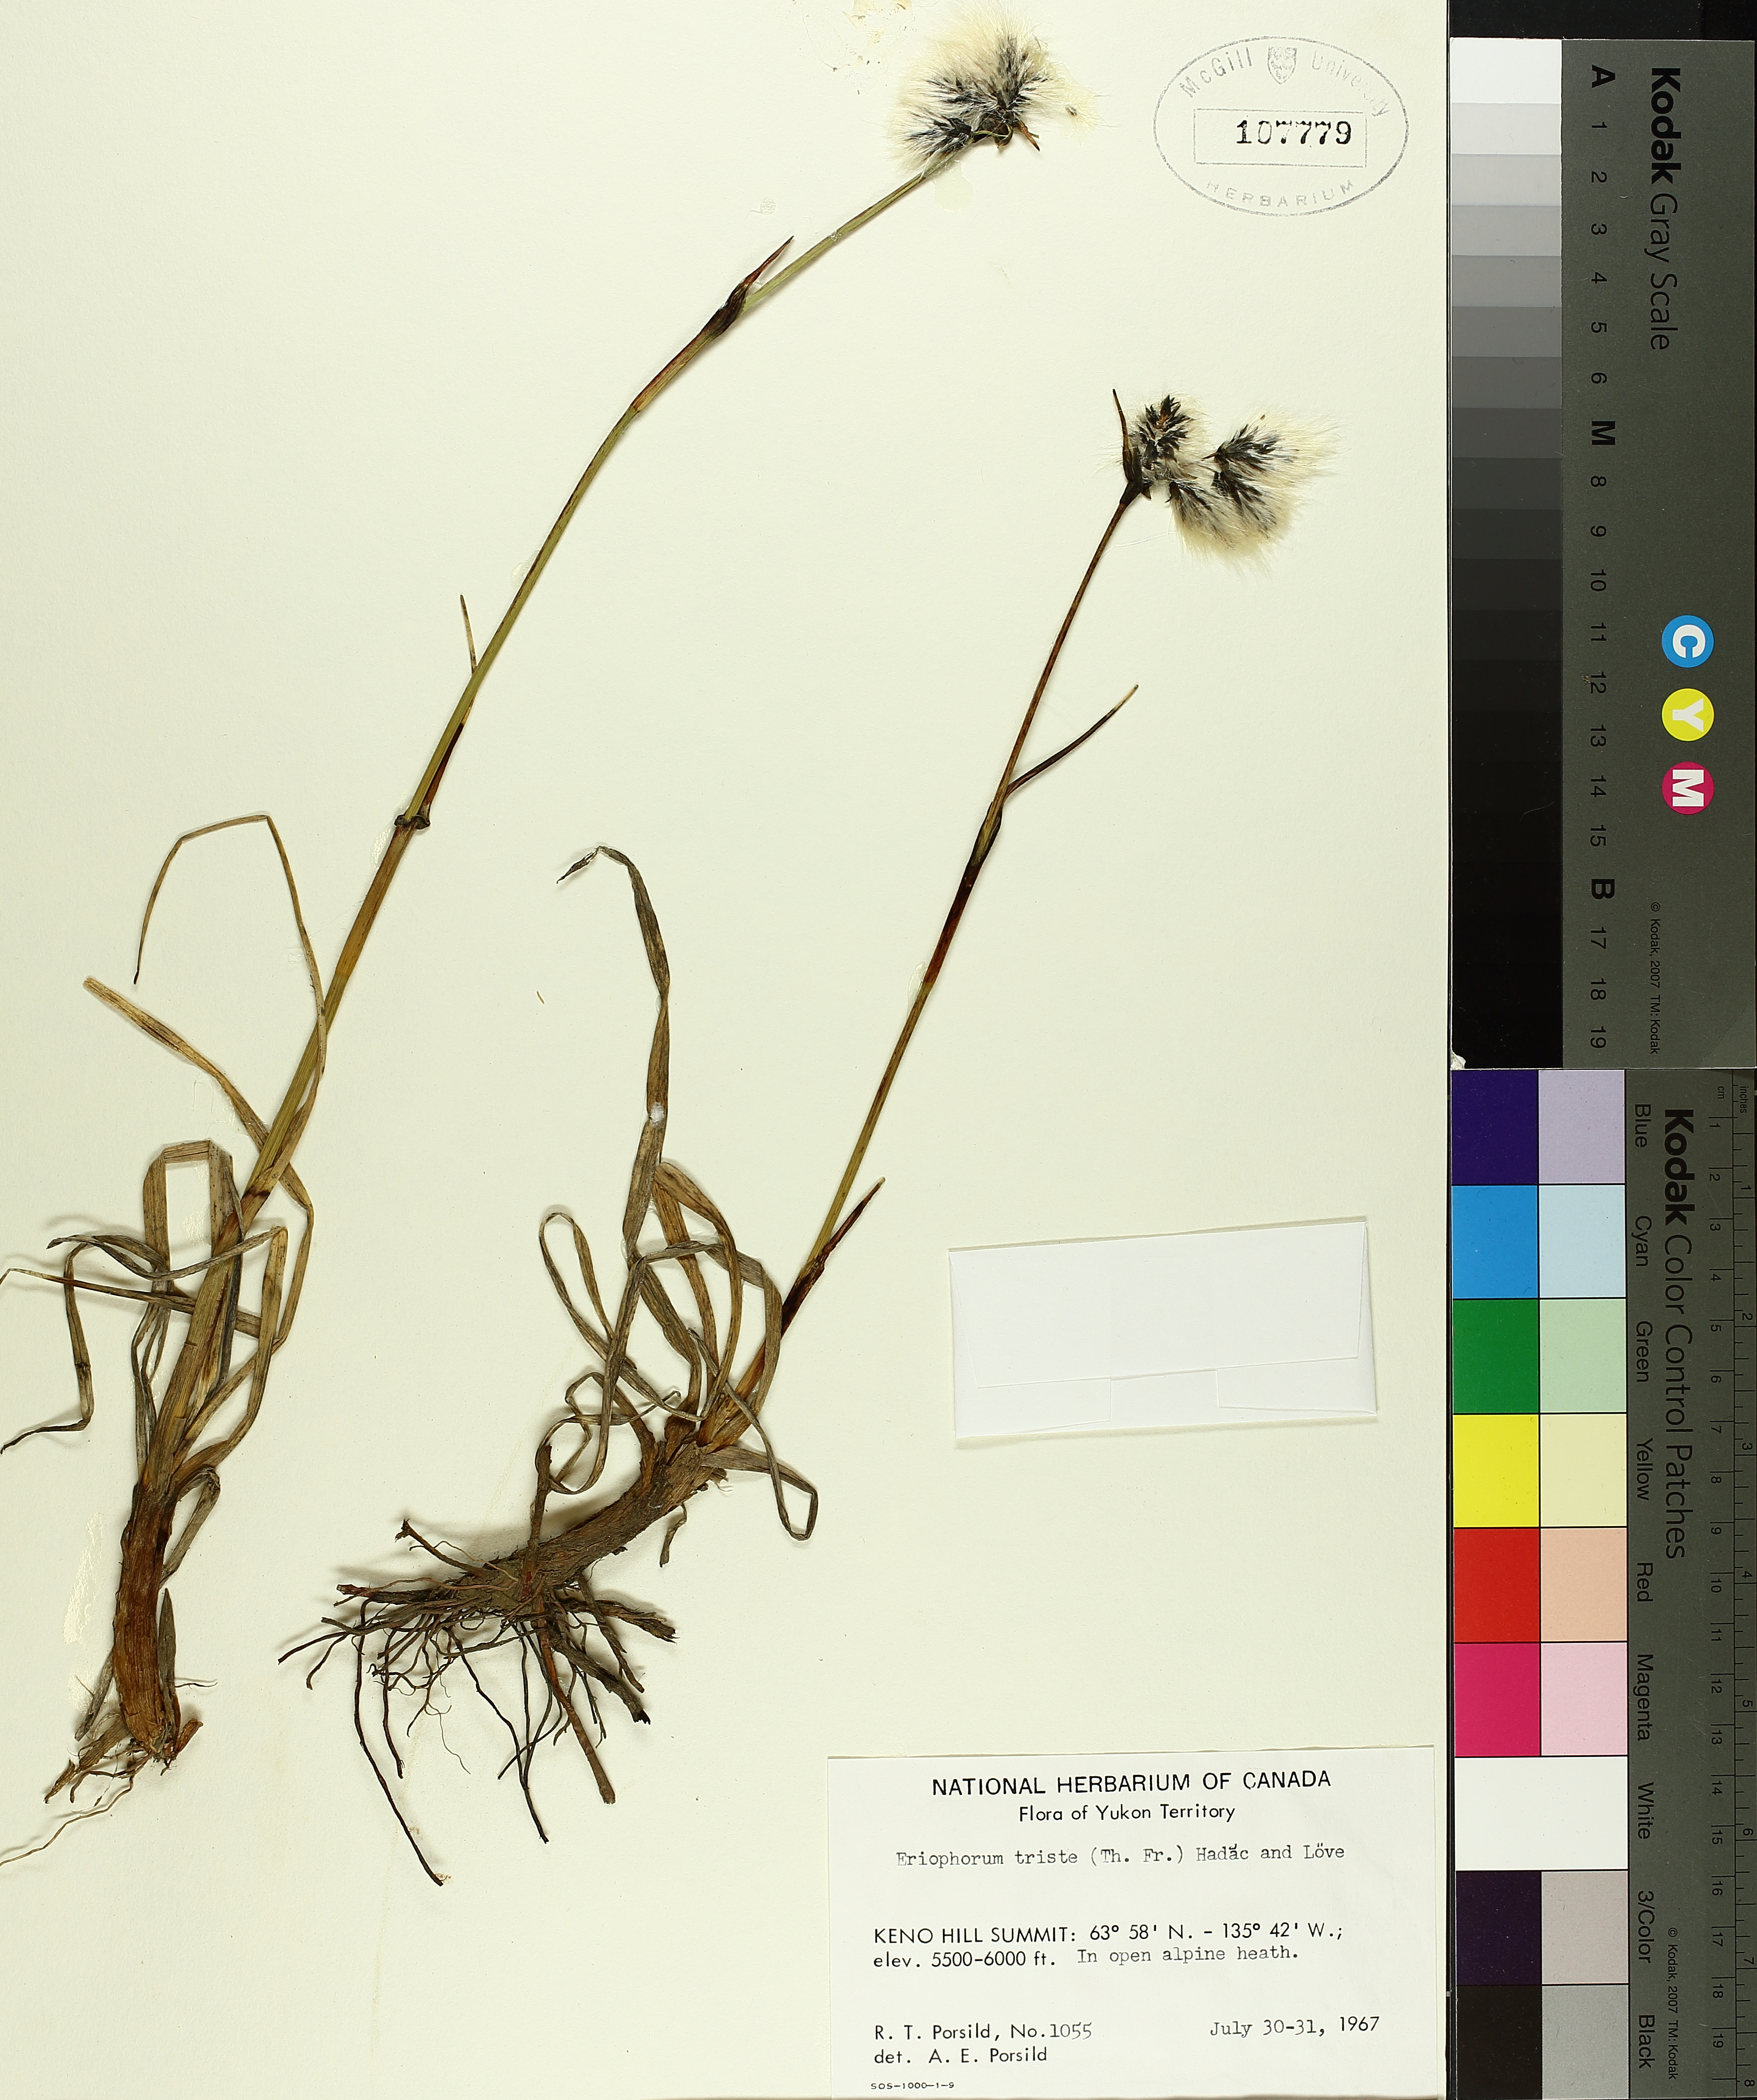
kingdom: Plantae
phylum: Tracheophyta
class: Liliopsida
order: Poales
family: Cyperaceae
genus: Carex
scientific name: Carex retrorsa
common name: Knot-sheath sedge
